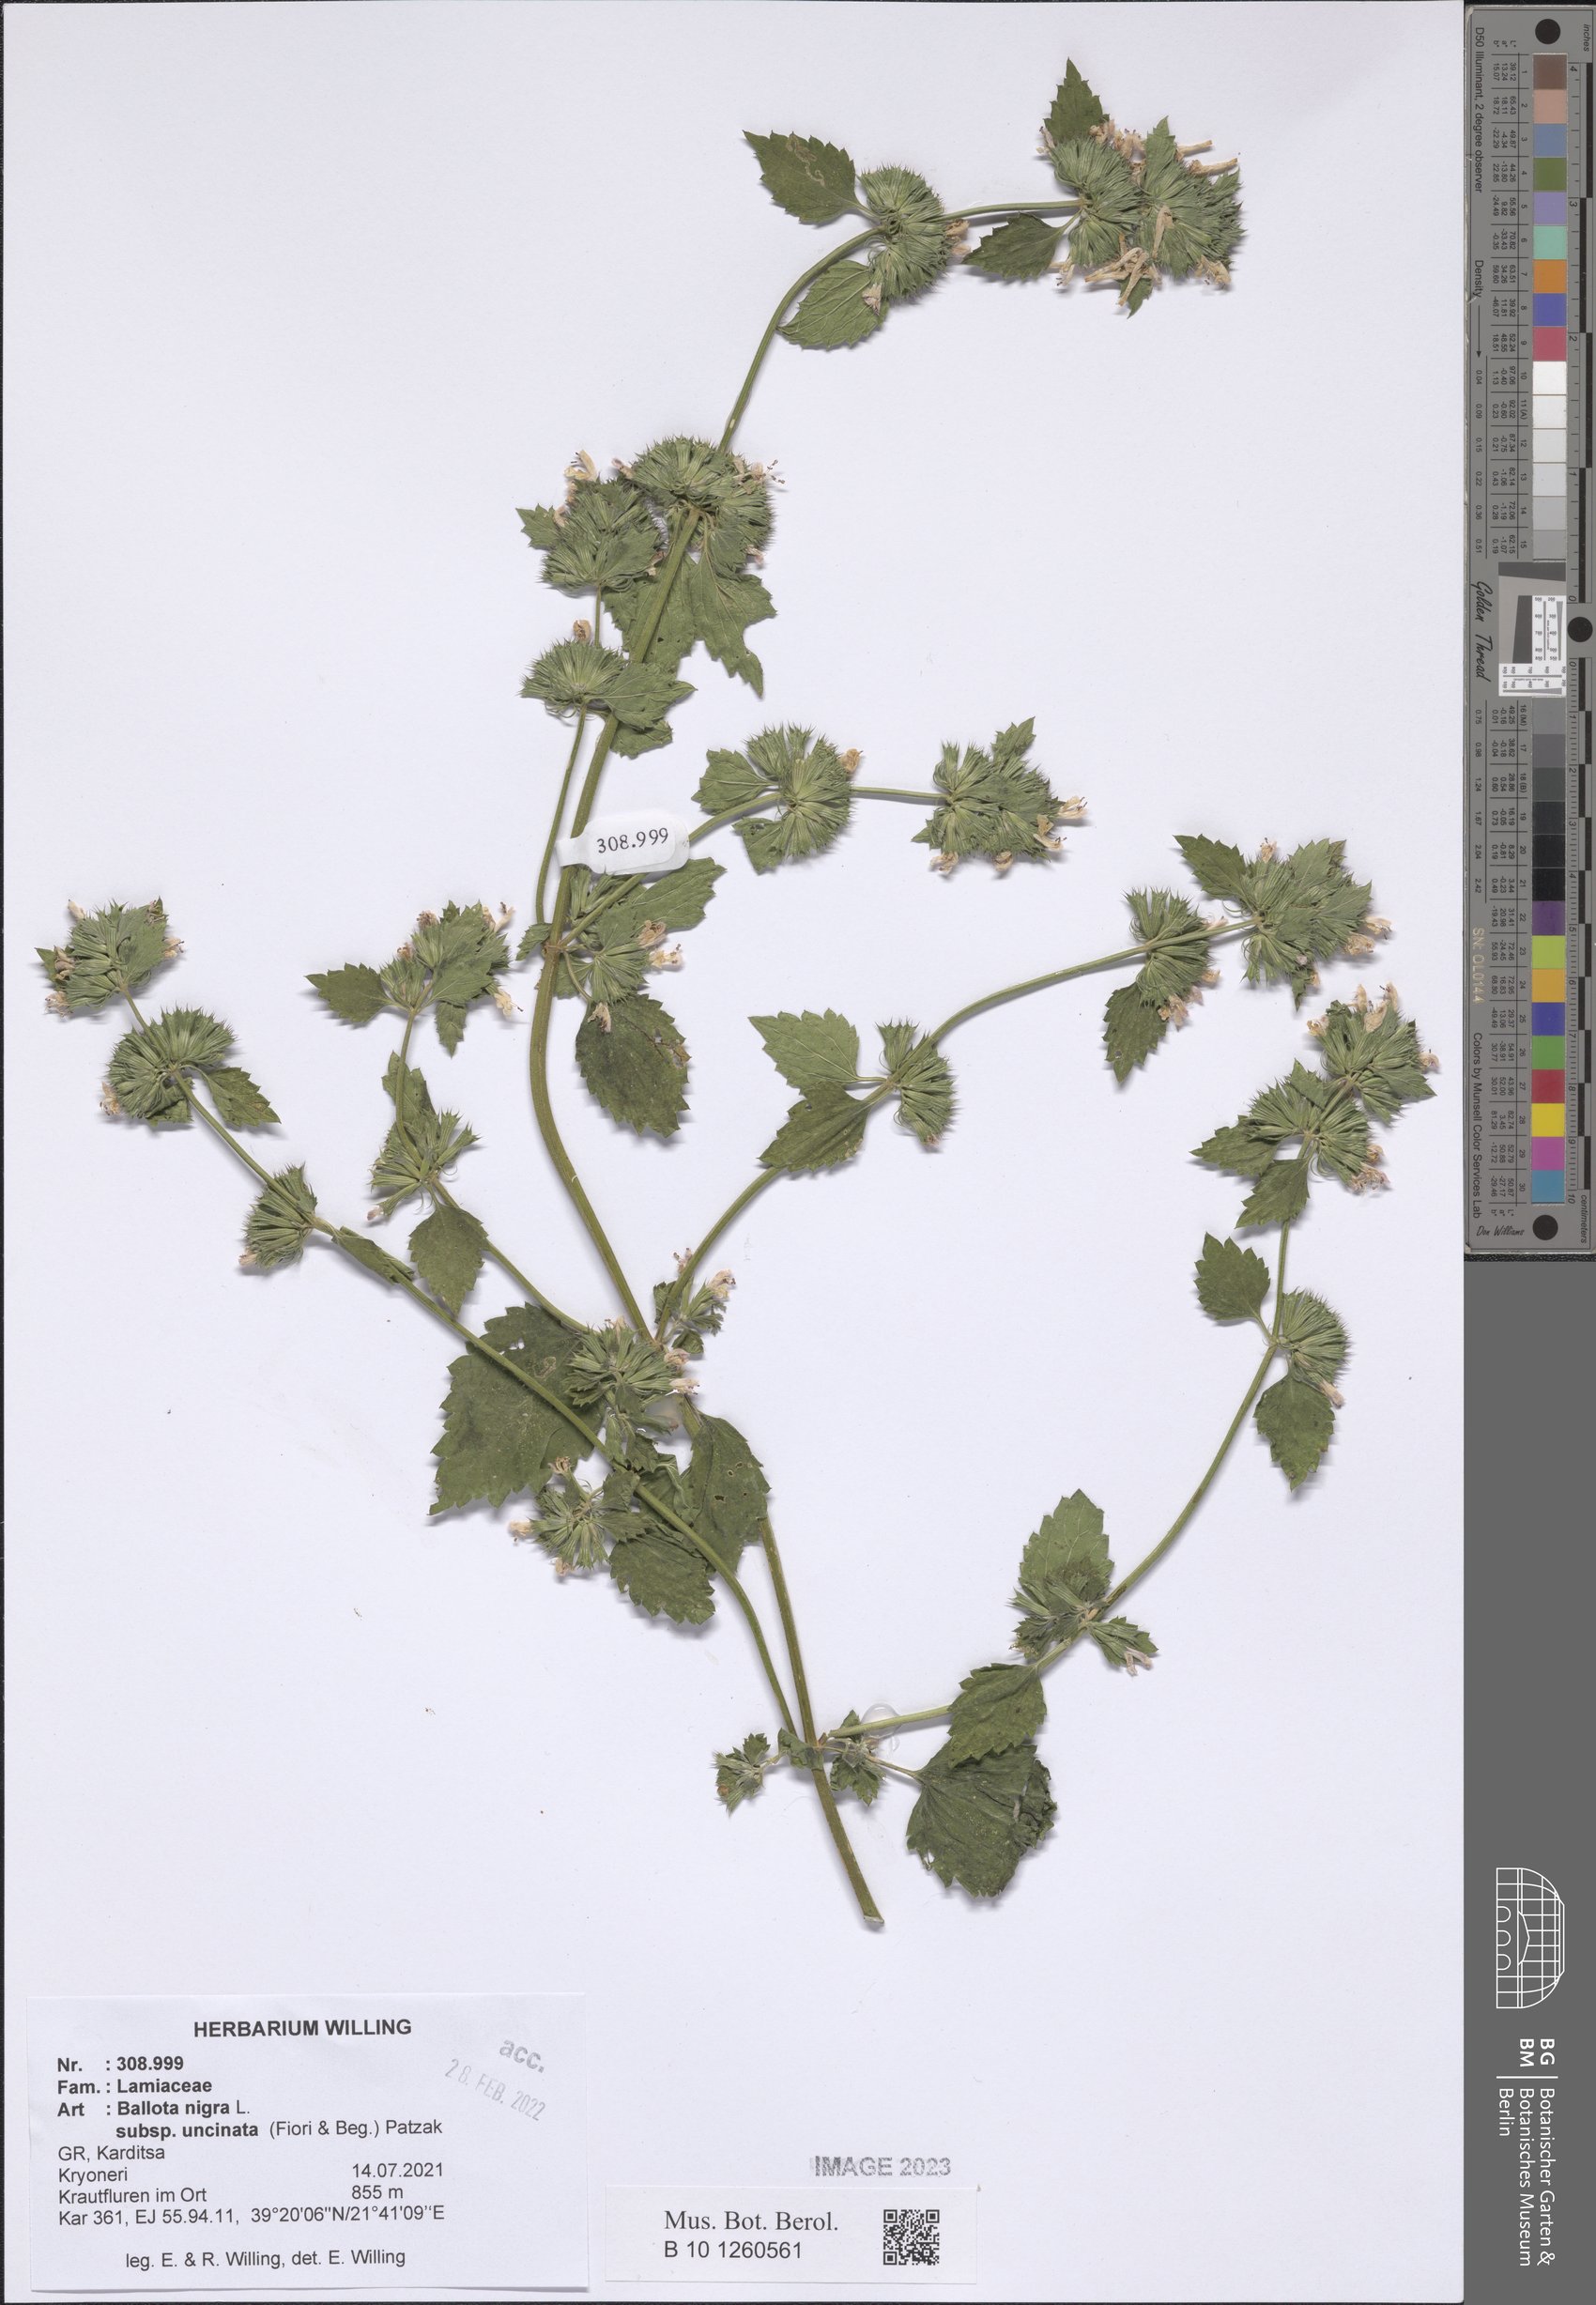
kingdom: Plantae
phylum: Tracheophyta
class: Magnoliopsida
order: Lamiales
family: Lamiaceae
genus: Ballota
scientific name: Ballota nigra
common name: Black horehound
